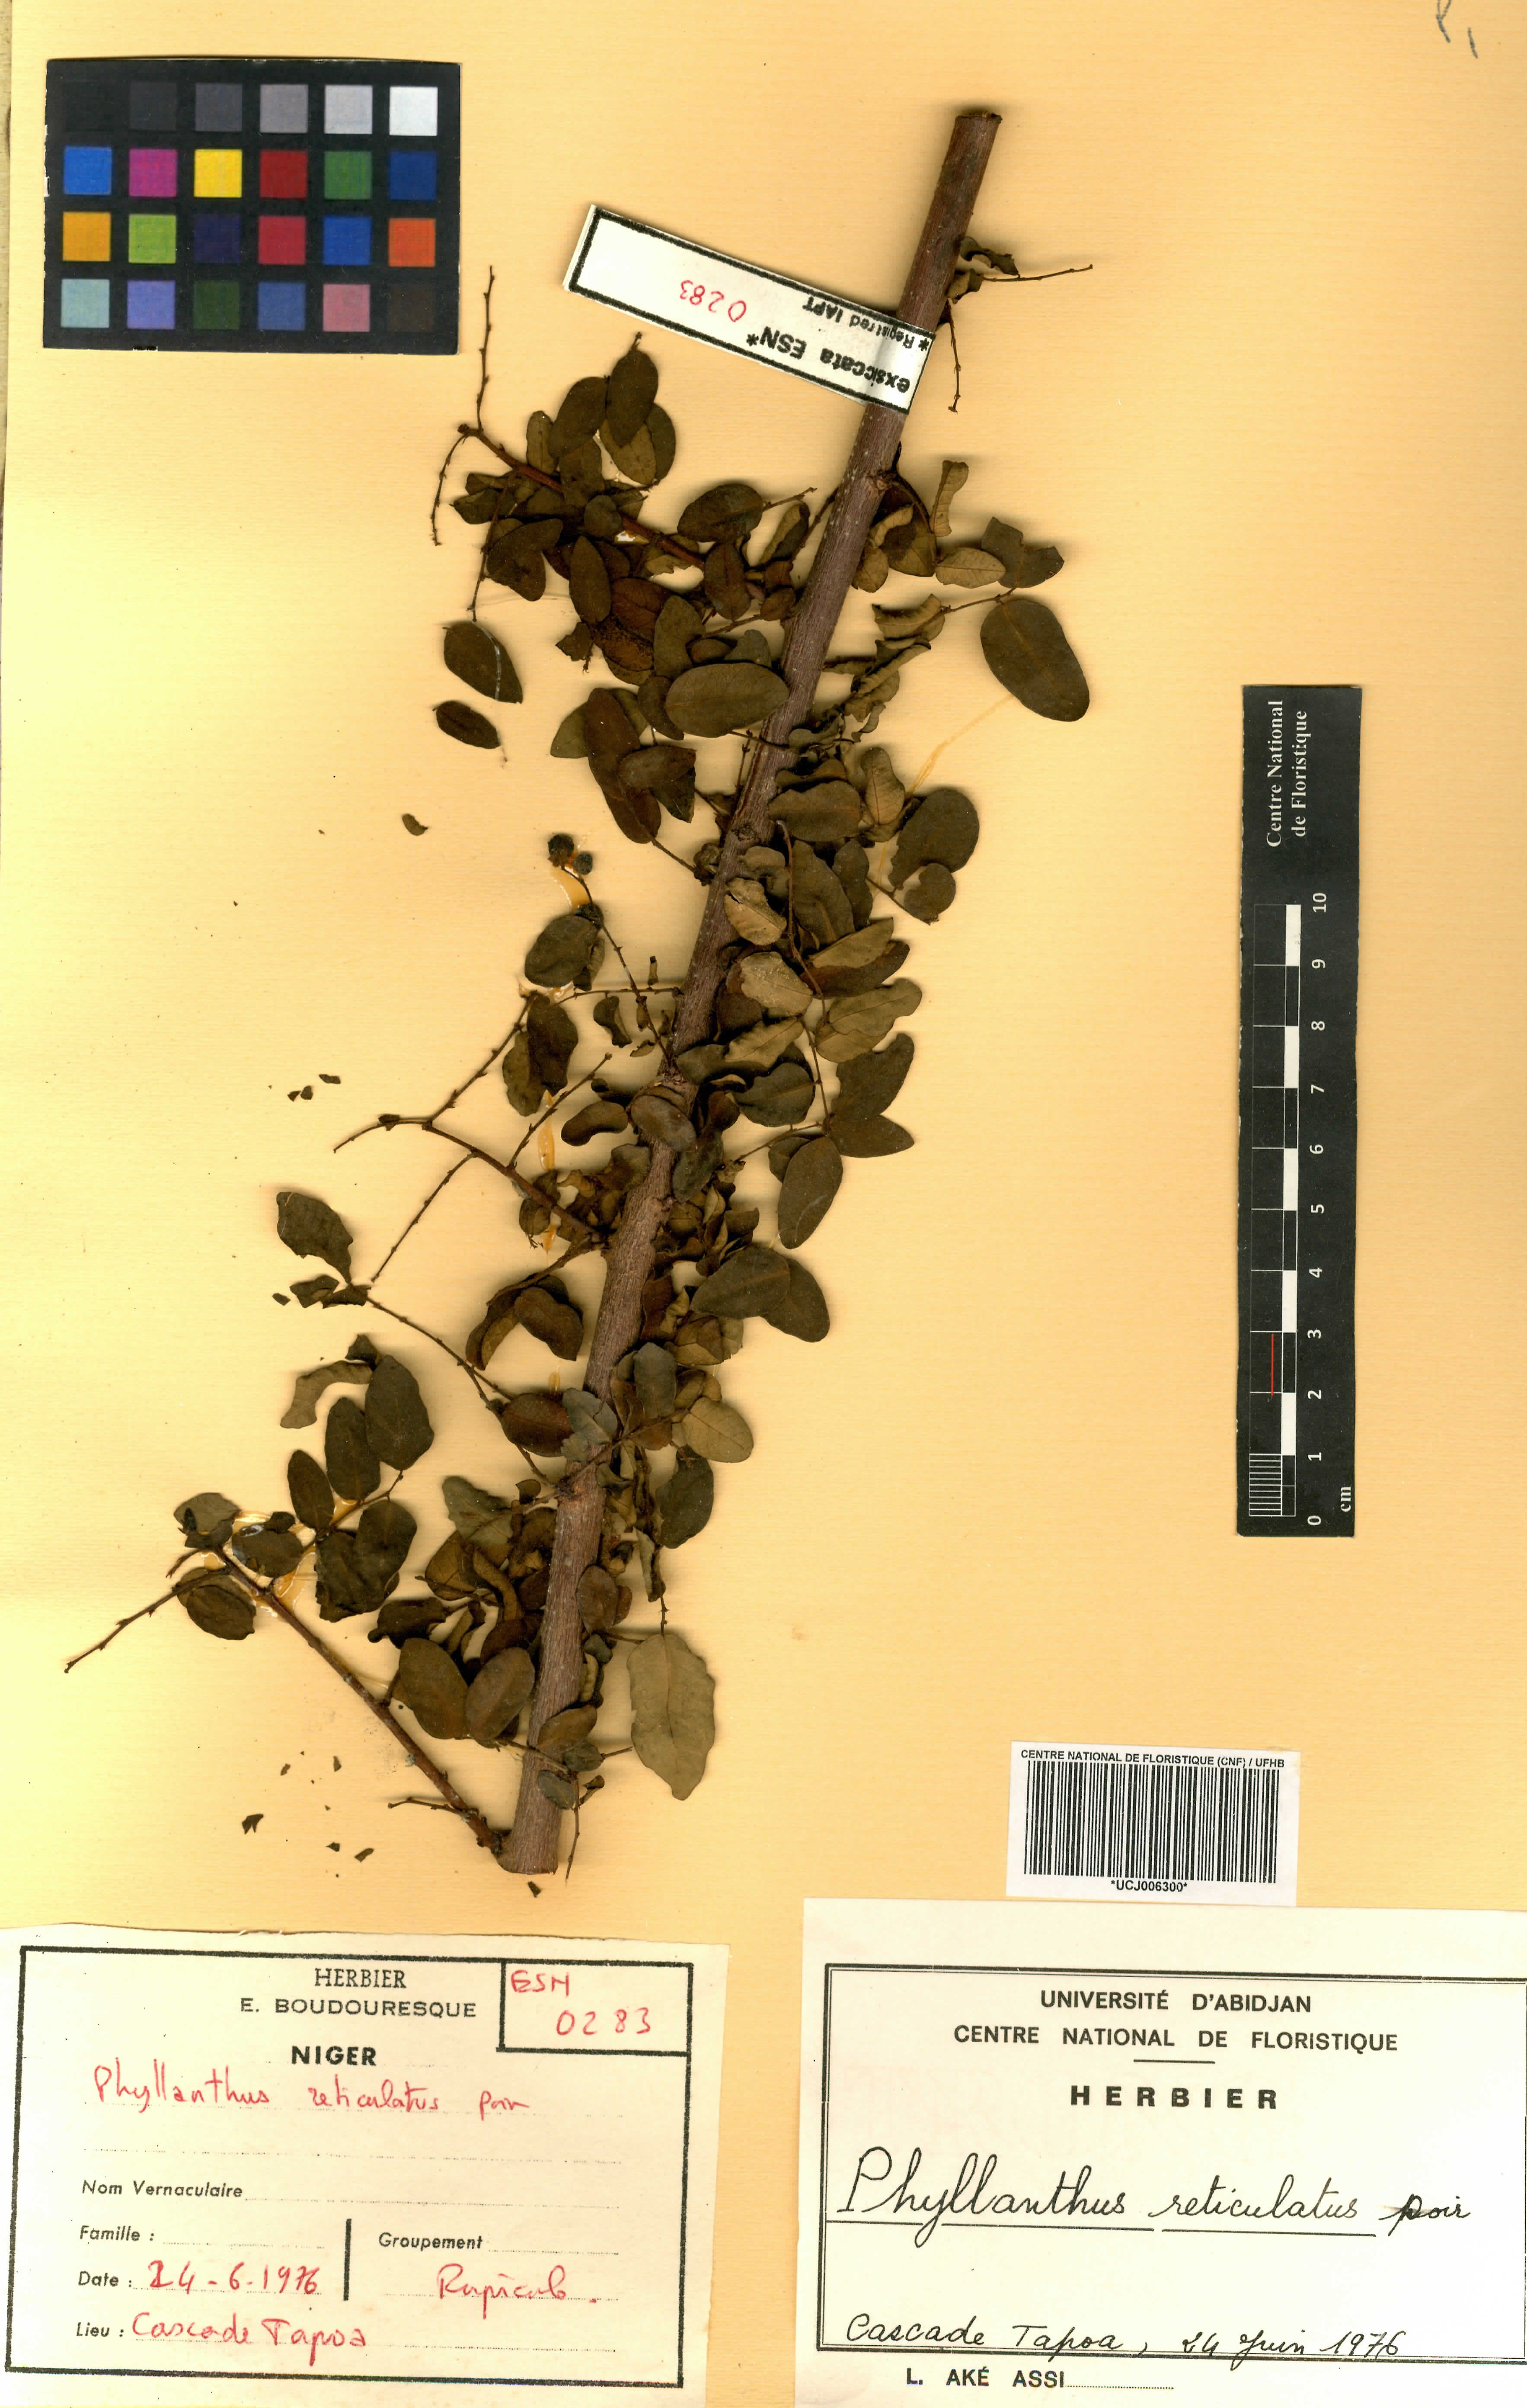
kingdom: Plantae
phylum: Tracheophyta
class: Magnoliopsida
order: Malpighiales
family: Phyllanthaceae
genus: Phyllanthus
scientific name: Phyllanthus reticulatus
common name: Potato bush
